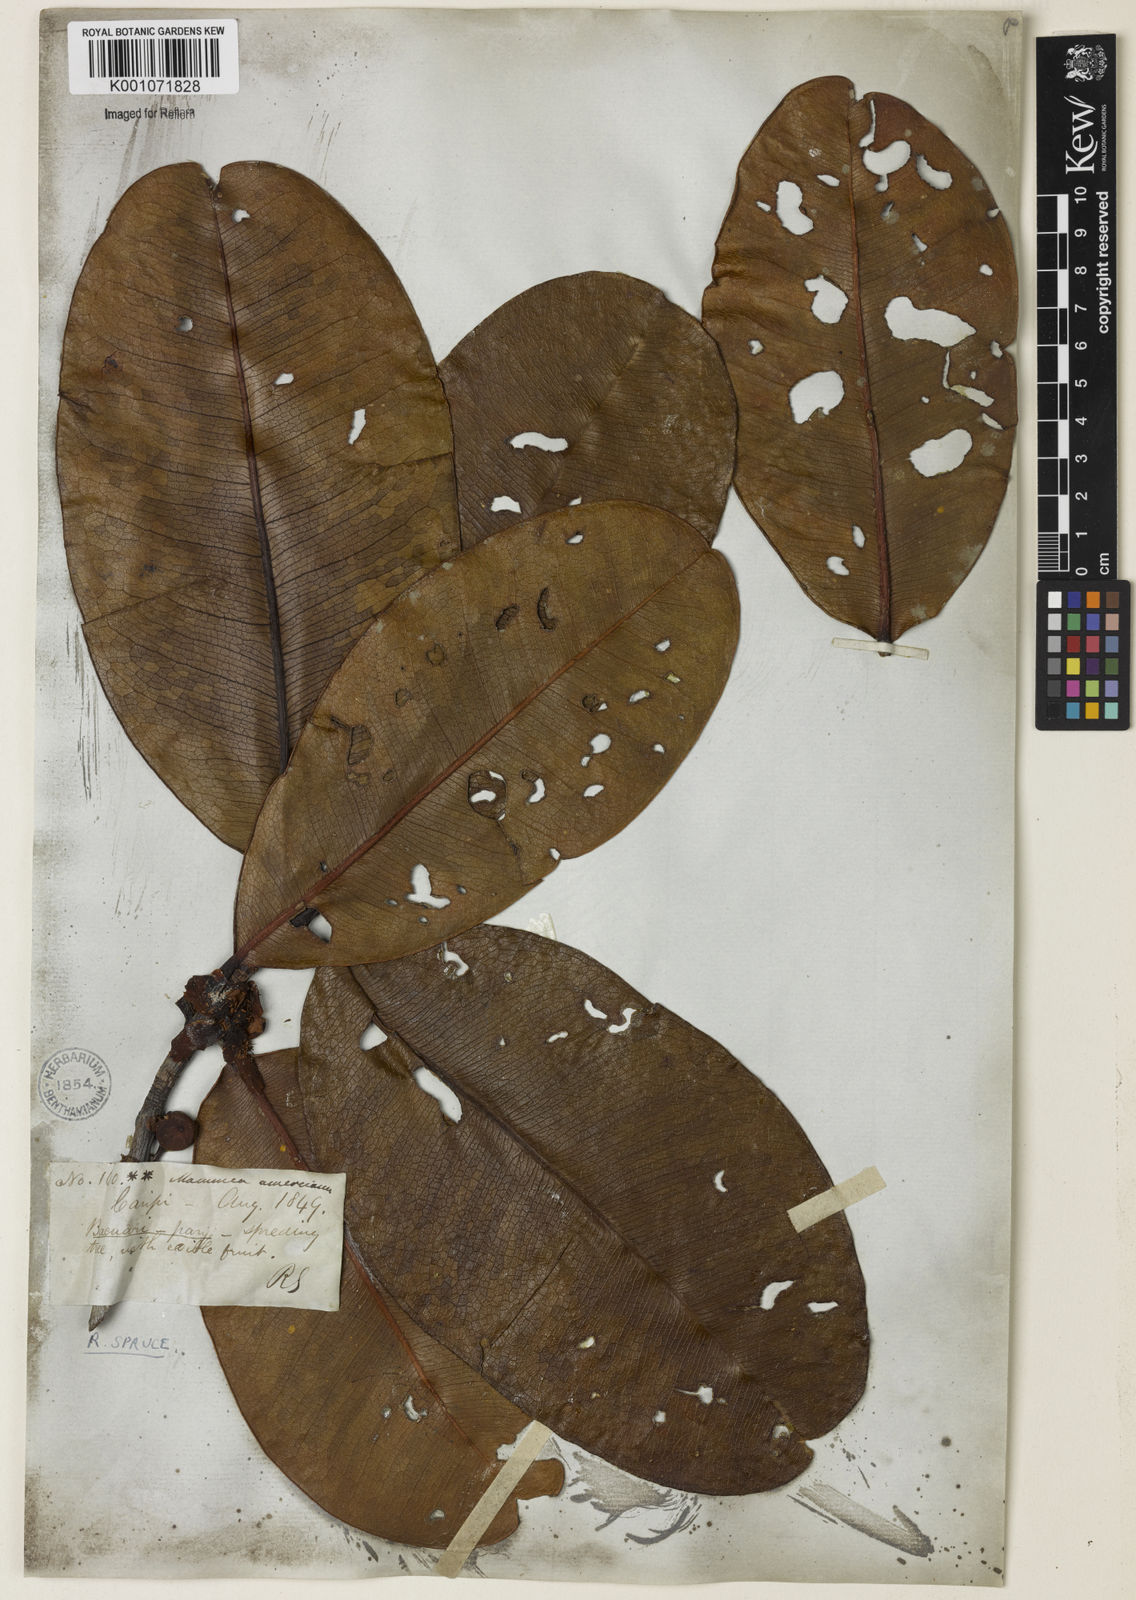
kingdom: Plantae
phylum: Tracheophyta
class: Magnoliopsida
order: Malpighiales
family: Calophyllaceae
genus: Mammea
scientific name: Mammea americana
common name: Mamey
